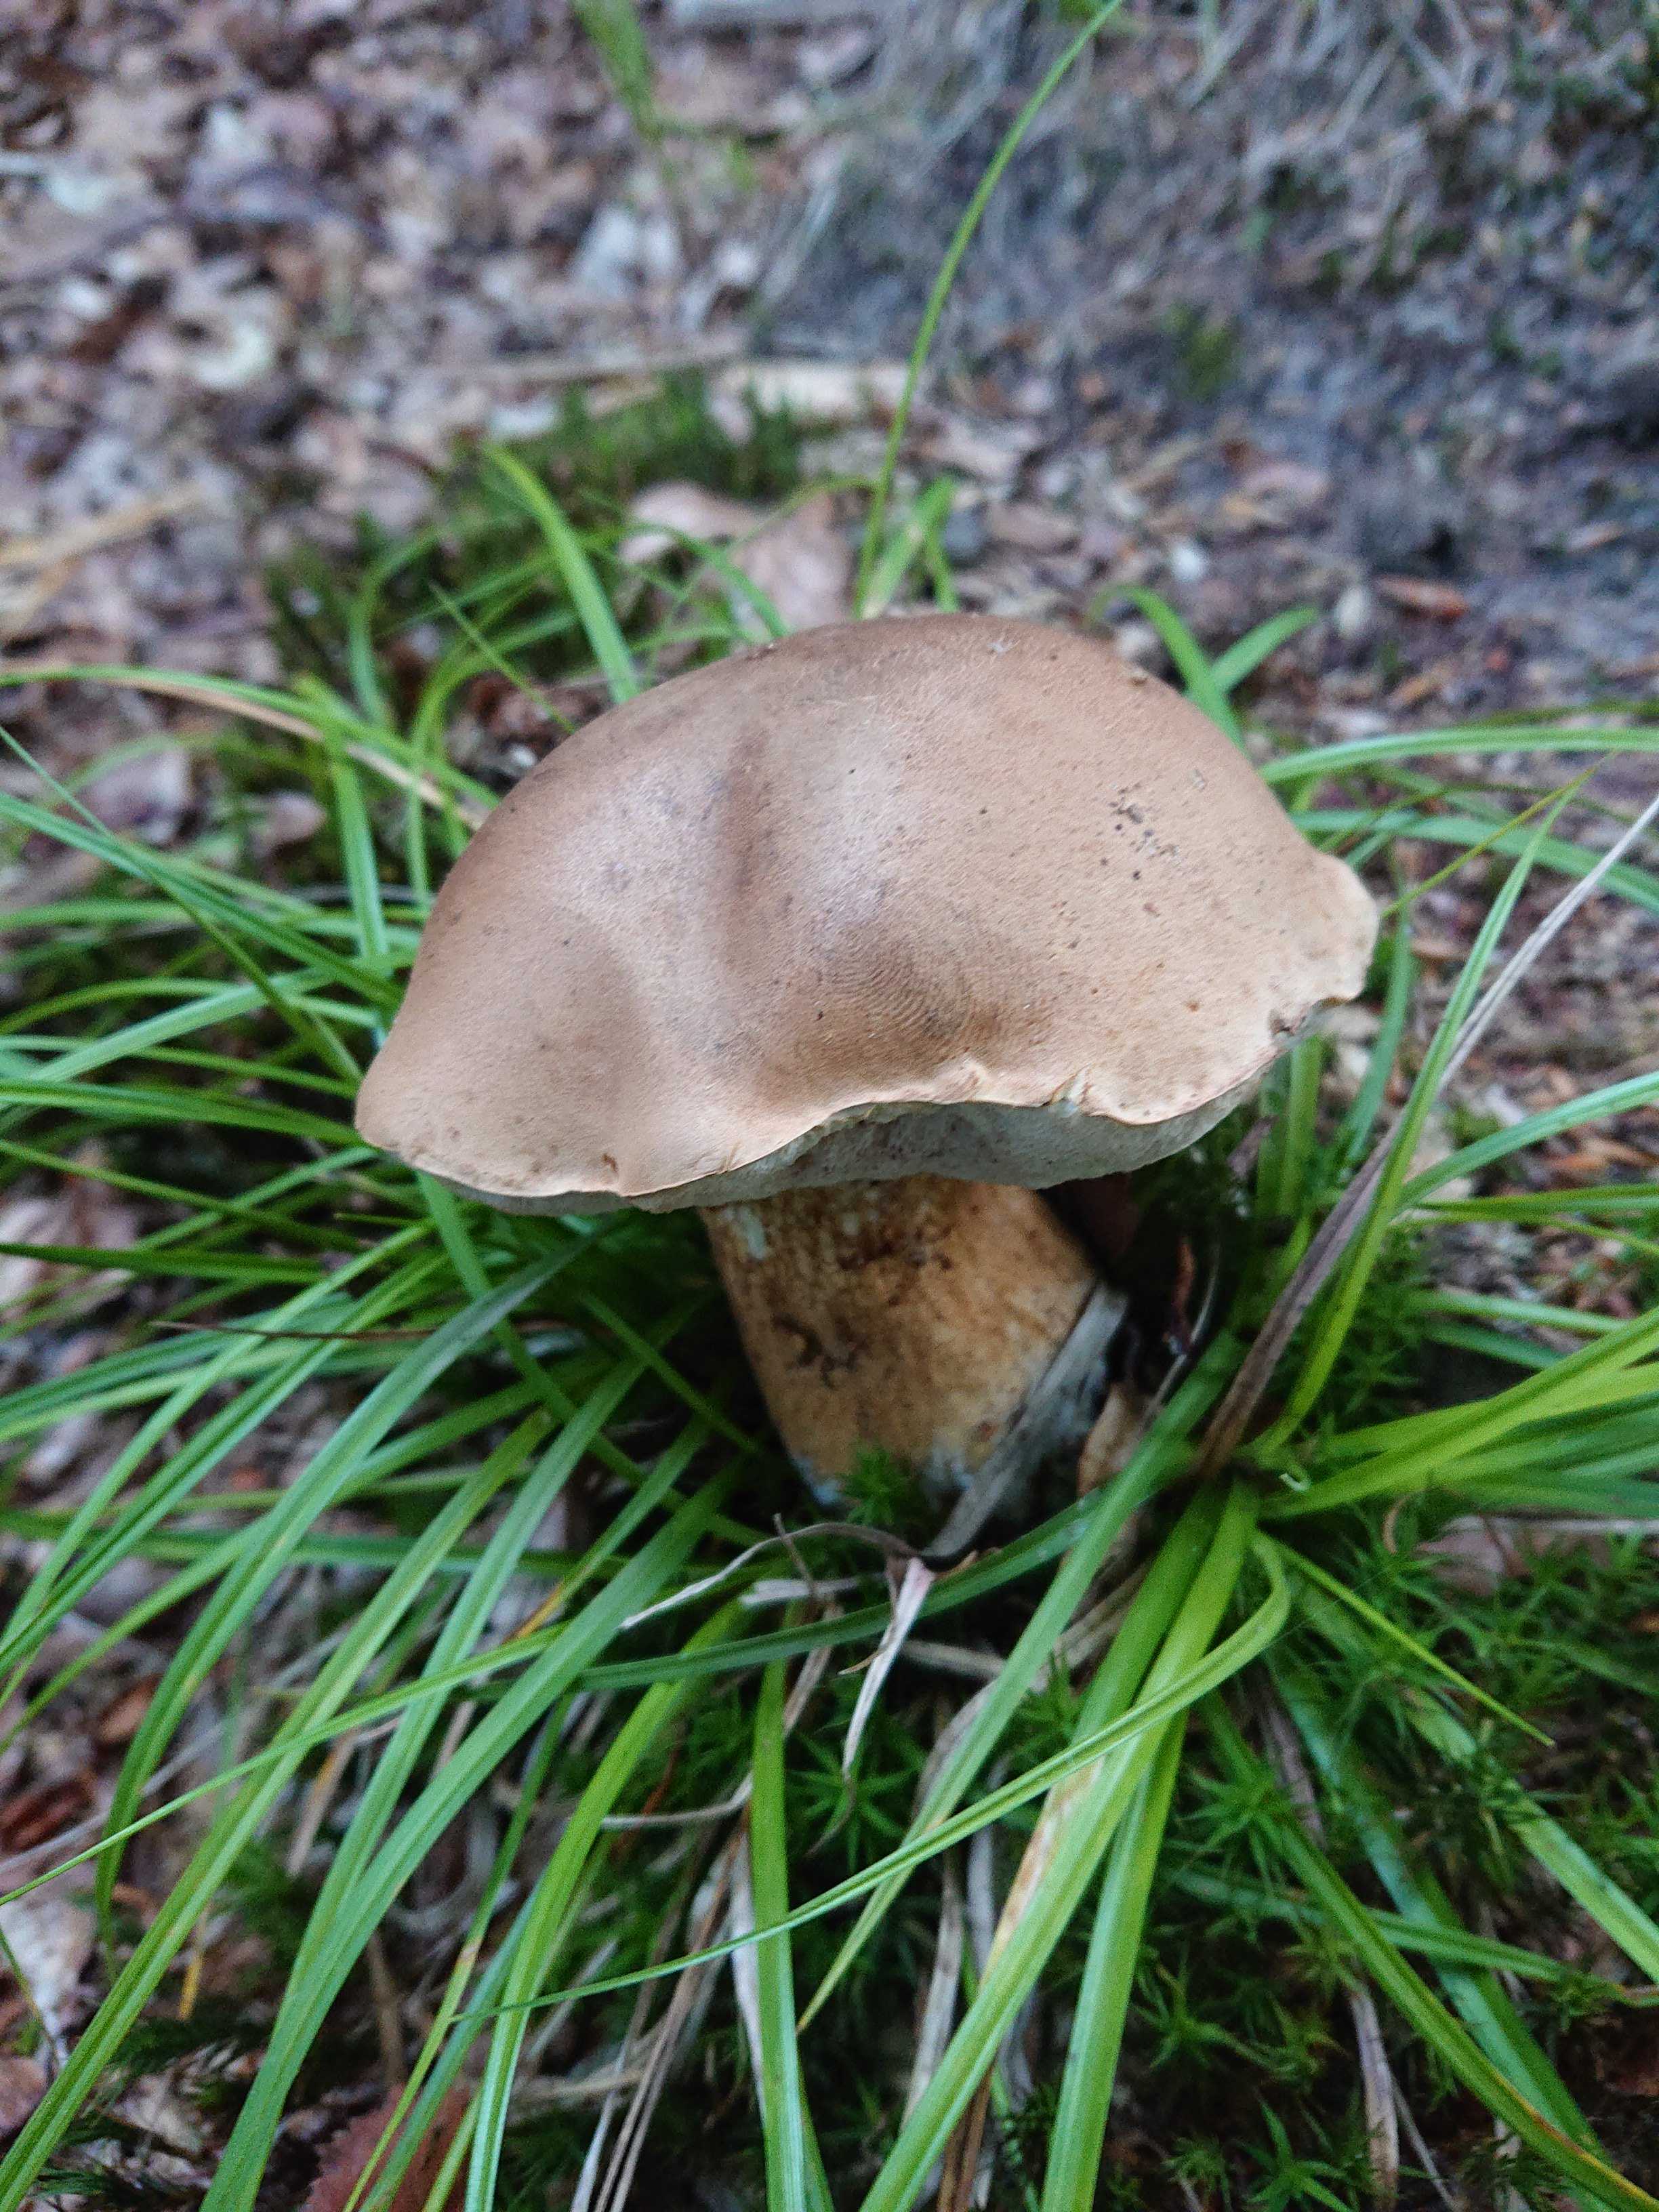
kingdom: Fungi
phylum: Basidiomycota
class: Agaricomycetes
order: Boletales
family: Boletaceae
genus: Tylopilus
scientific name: Tylopilus felleus
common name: galderørhat
